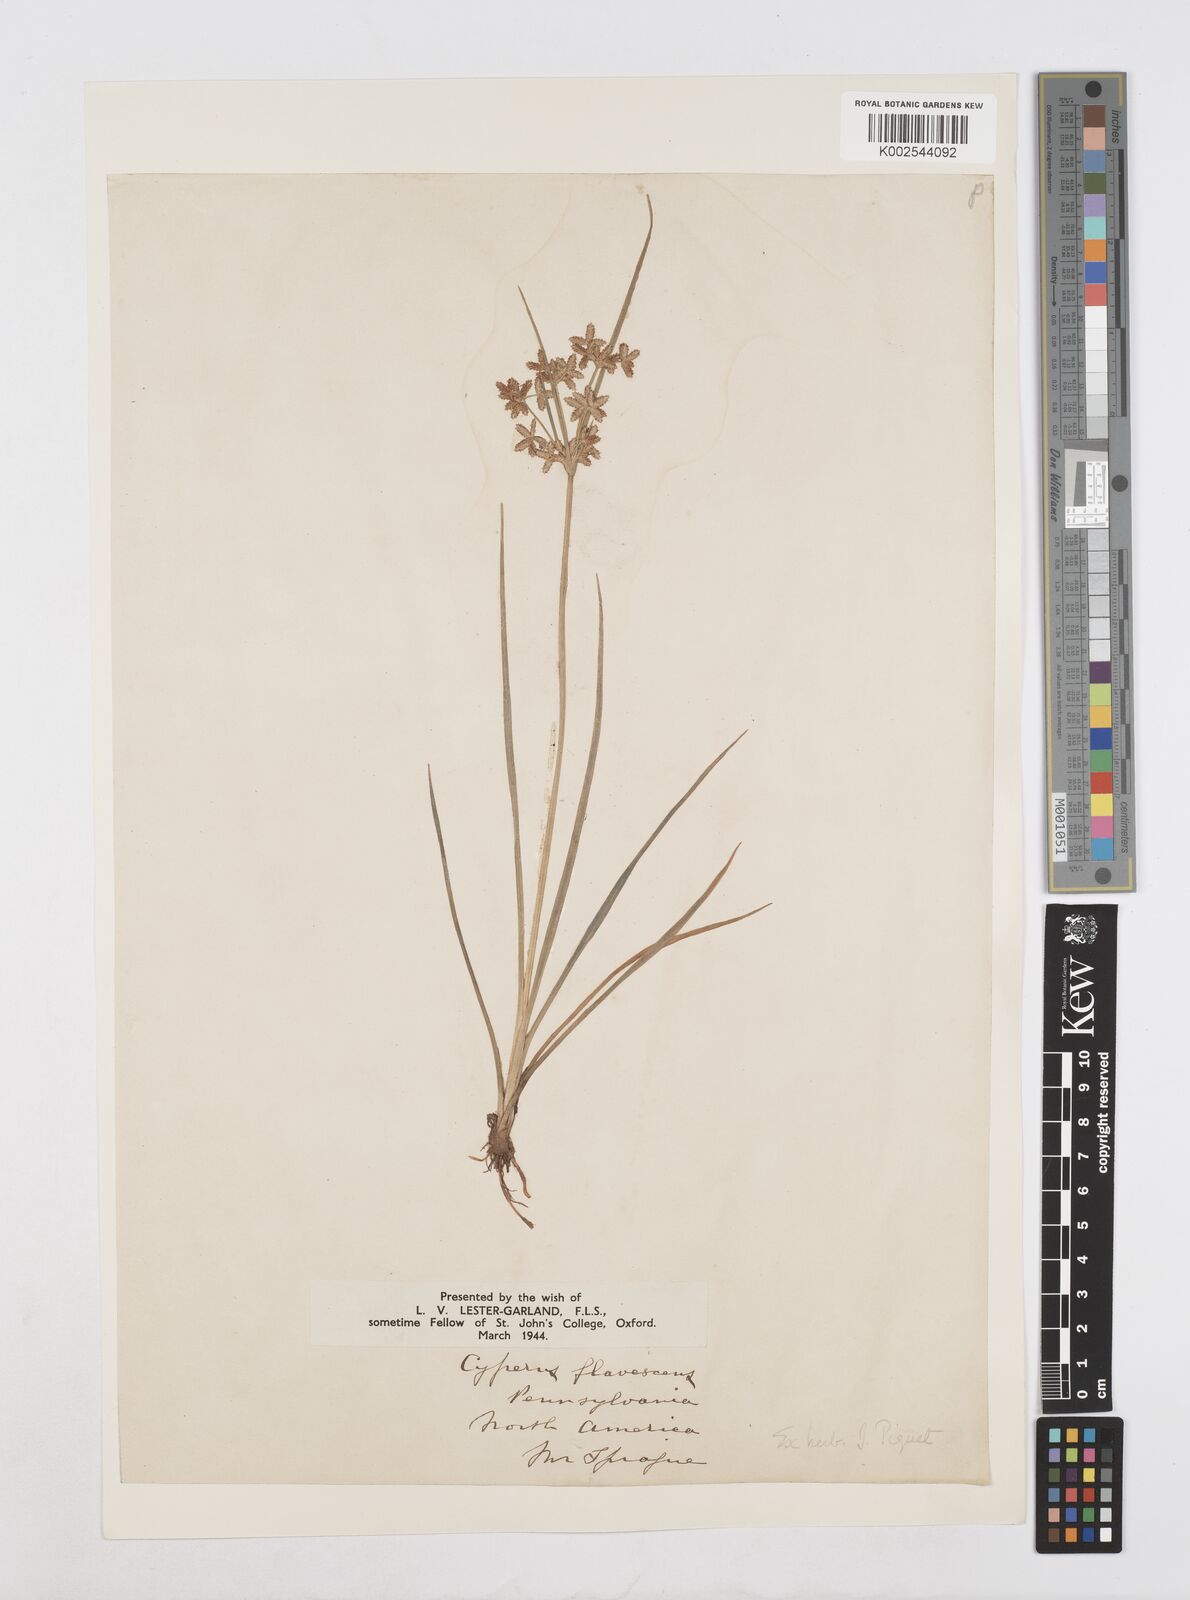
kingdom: Plantae
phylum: Tracheophyta
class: Liliopsida
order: Poales
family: Cyperaceae
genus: Cyperus
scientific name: Cyperus flavescens
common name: Yellow galingale
